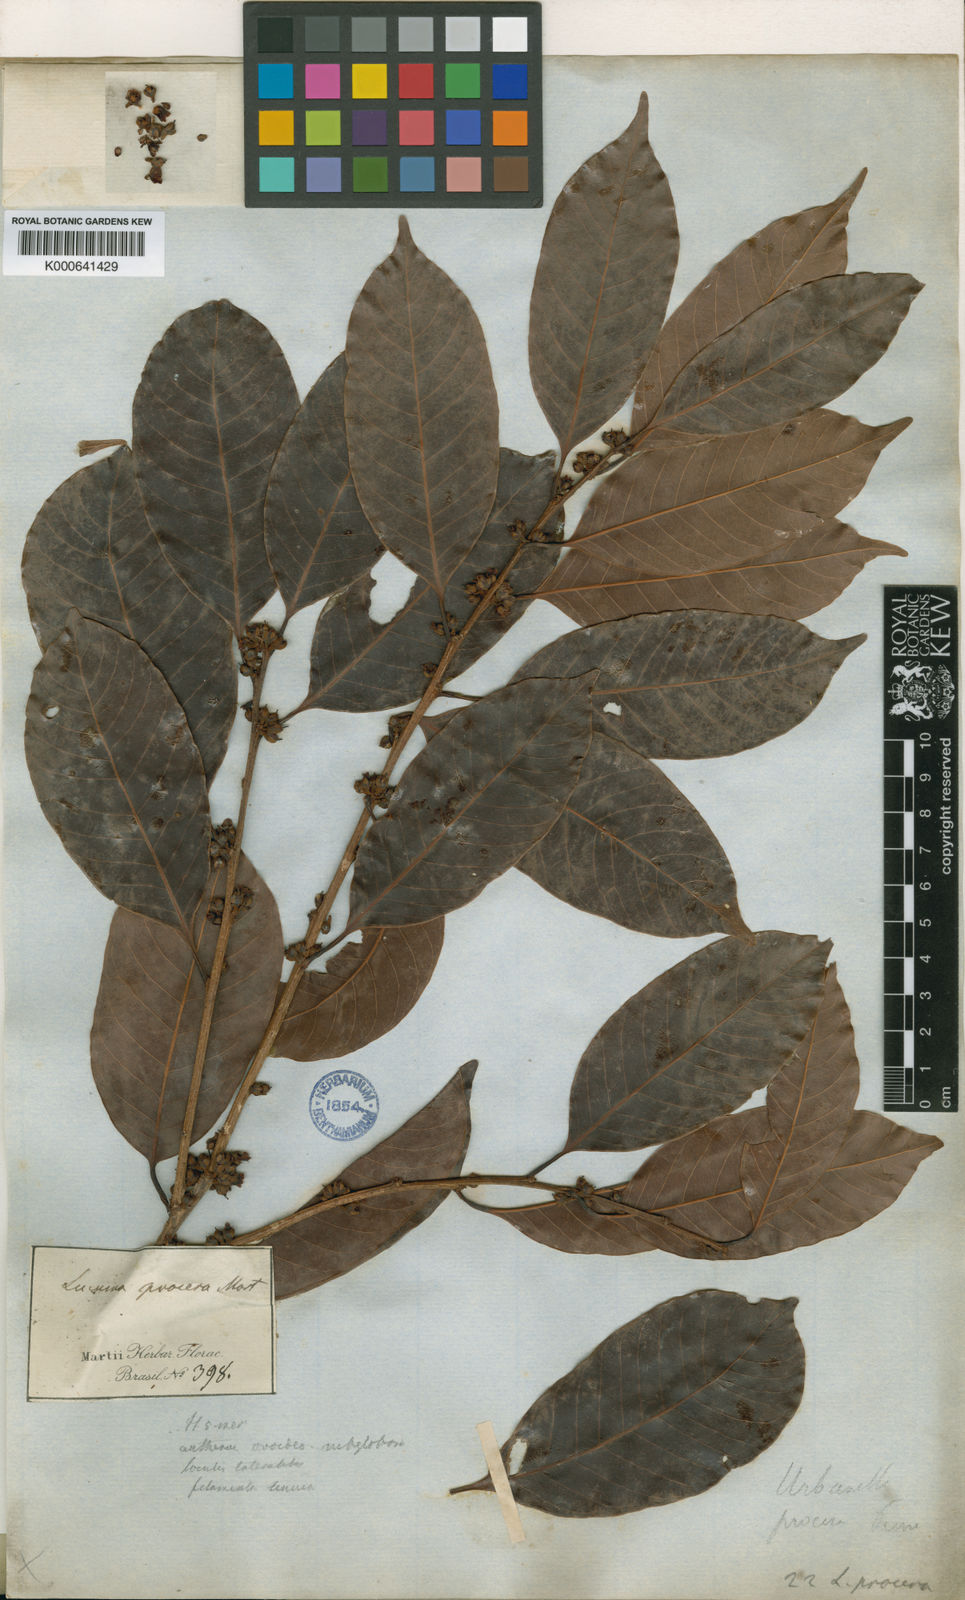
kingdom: Plantae
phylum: Tracheophyta
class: Magnoliopsida
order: Ericales
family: Sapotaceae
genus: Pouteria
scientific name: Pouteria procera
